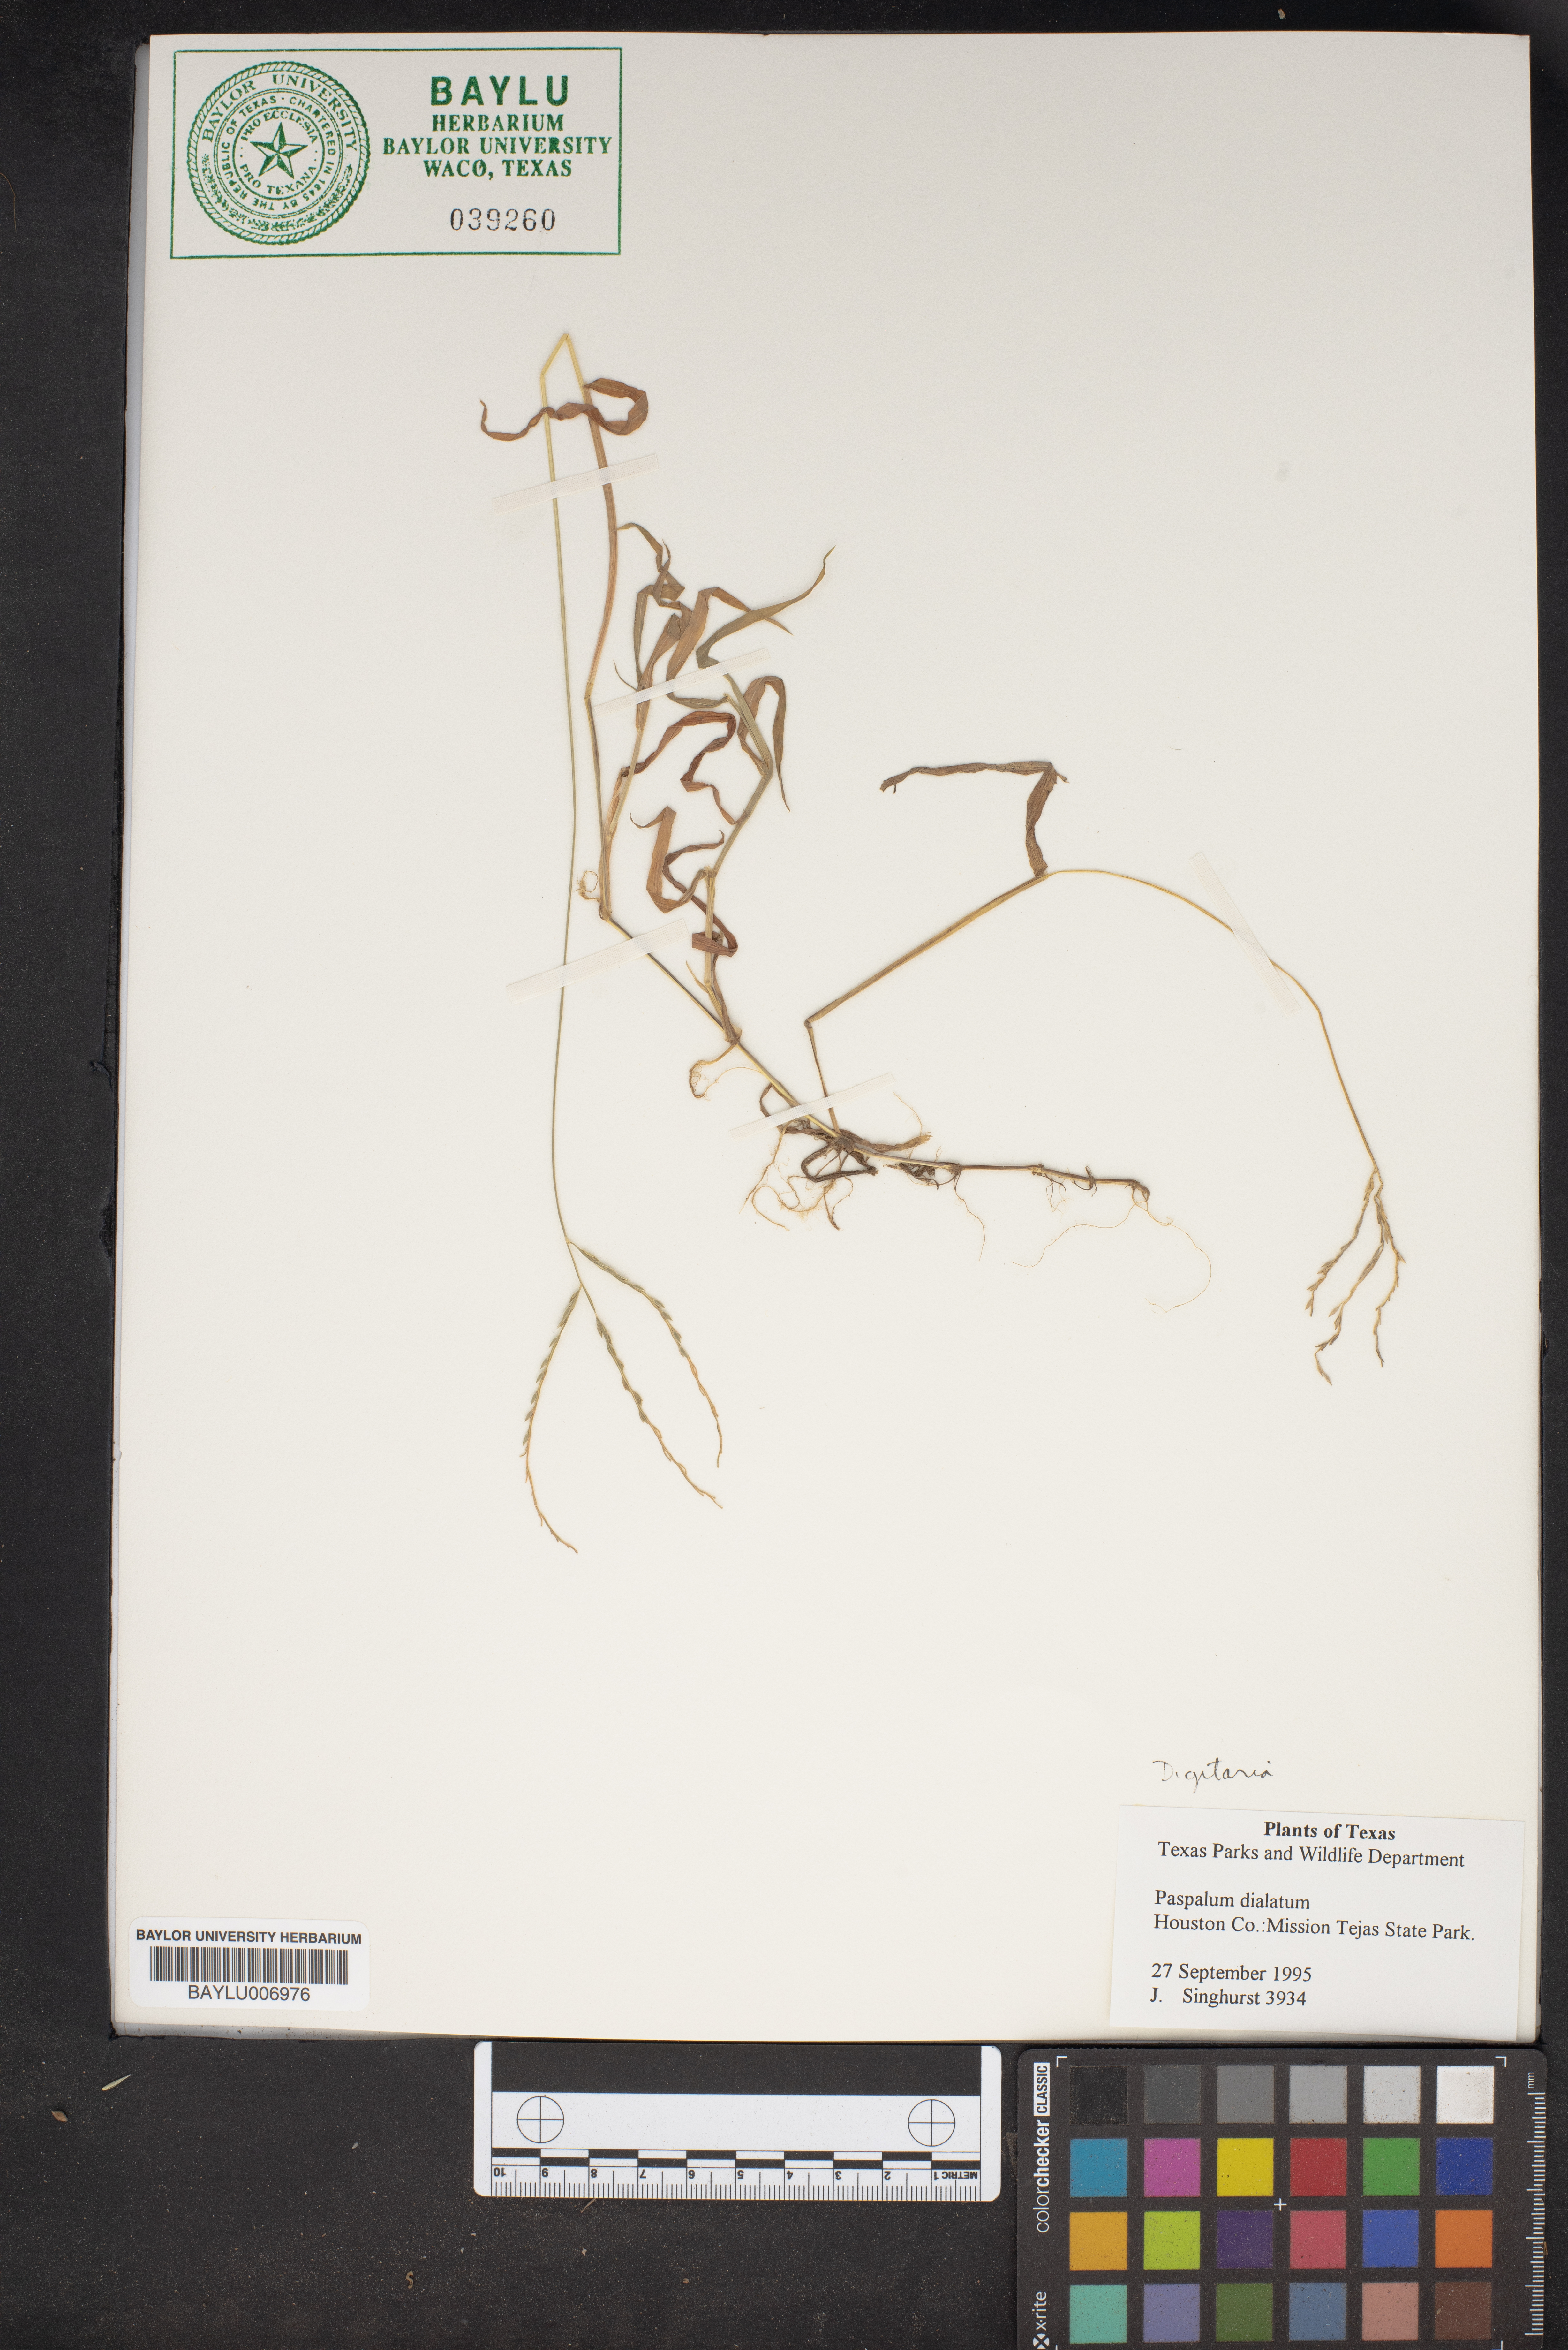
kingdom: Plantae
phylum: Tracheophyta
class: Liliopsida
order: Poales
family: Poaceae
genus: Paspalum
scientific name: Paspalum
